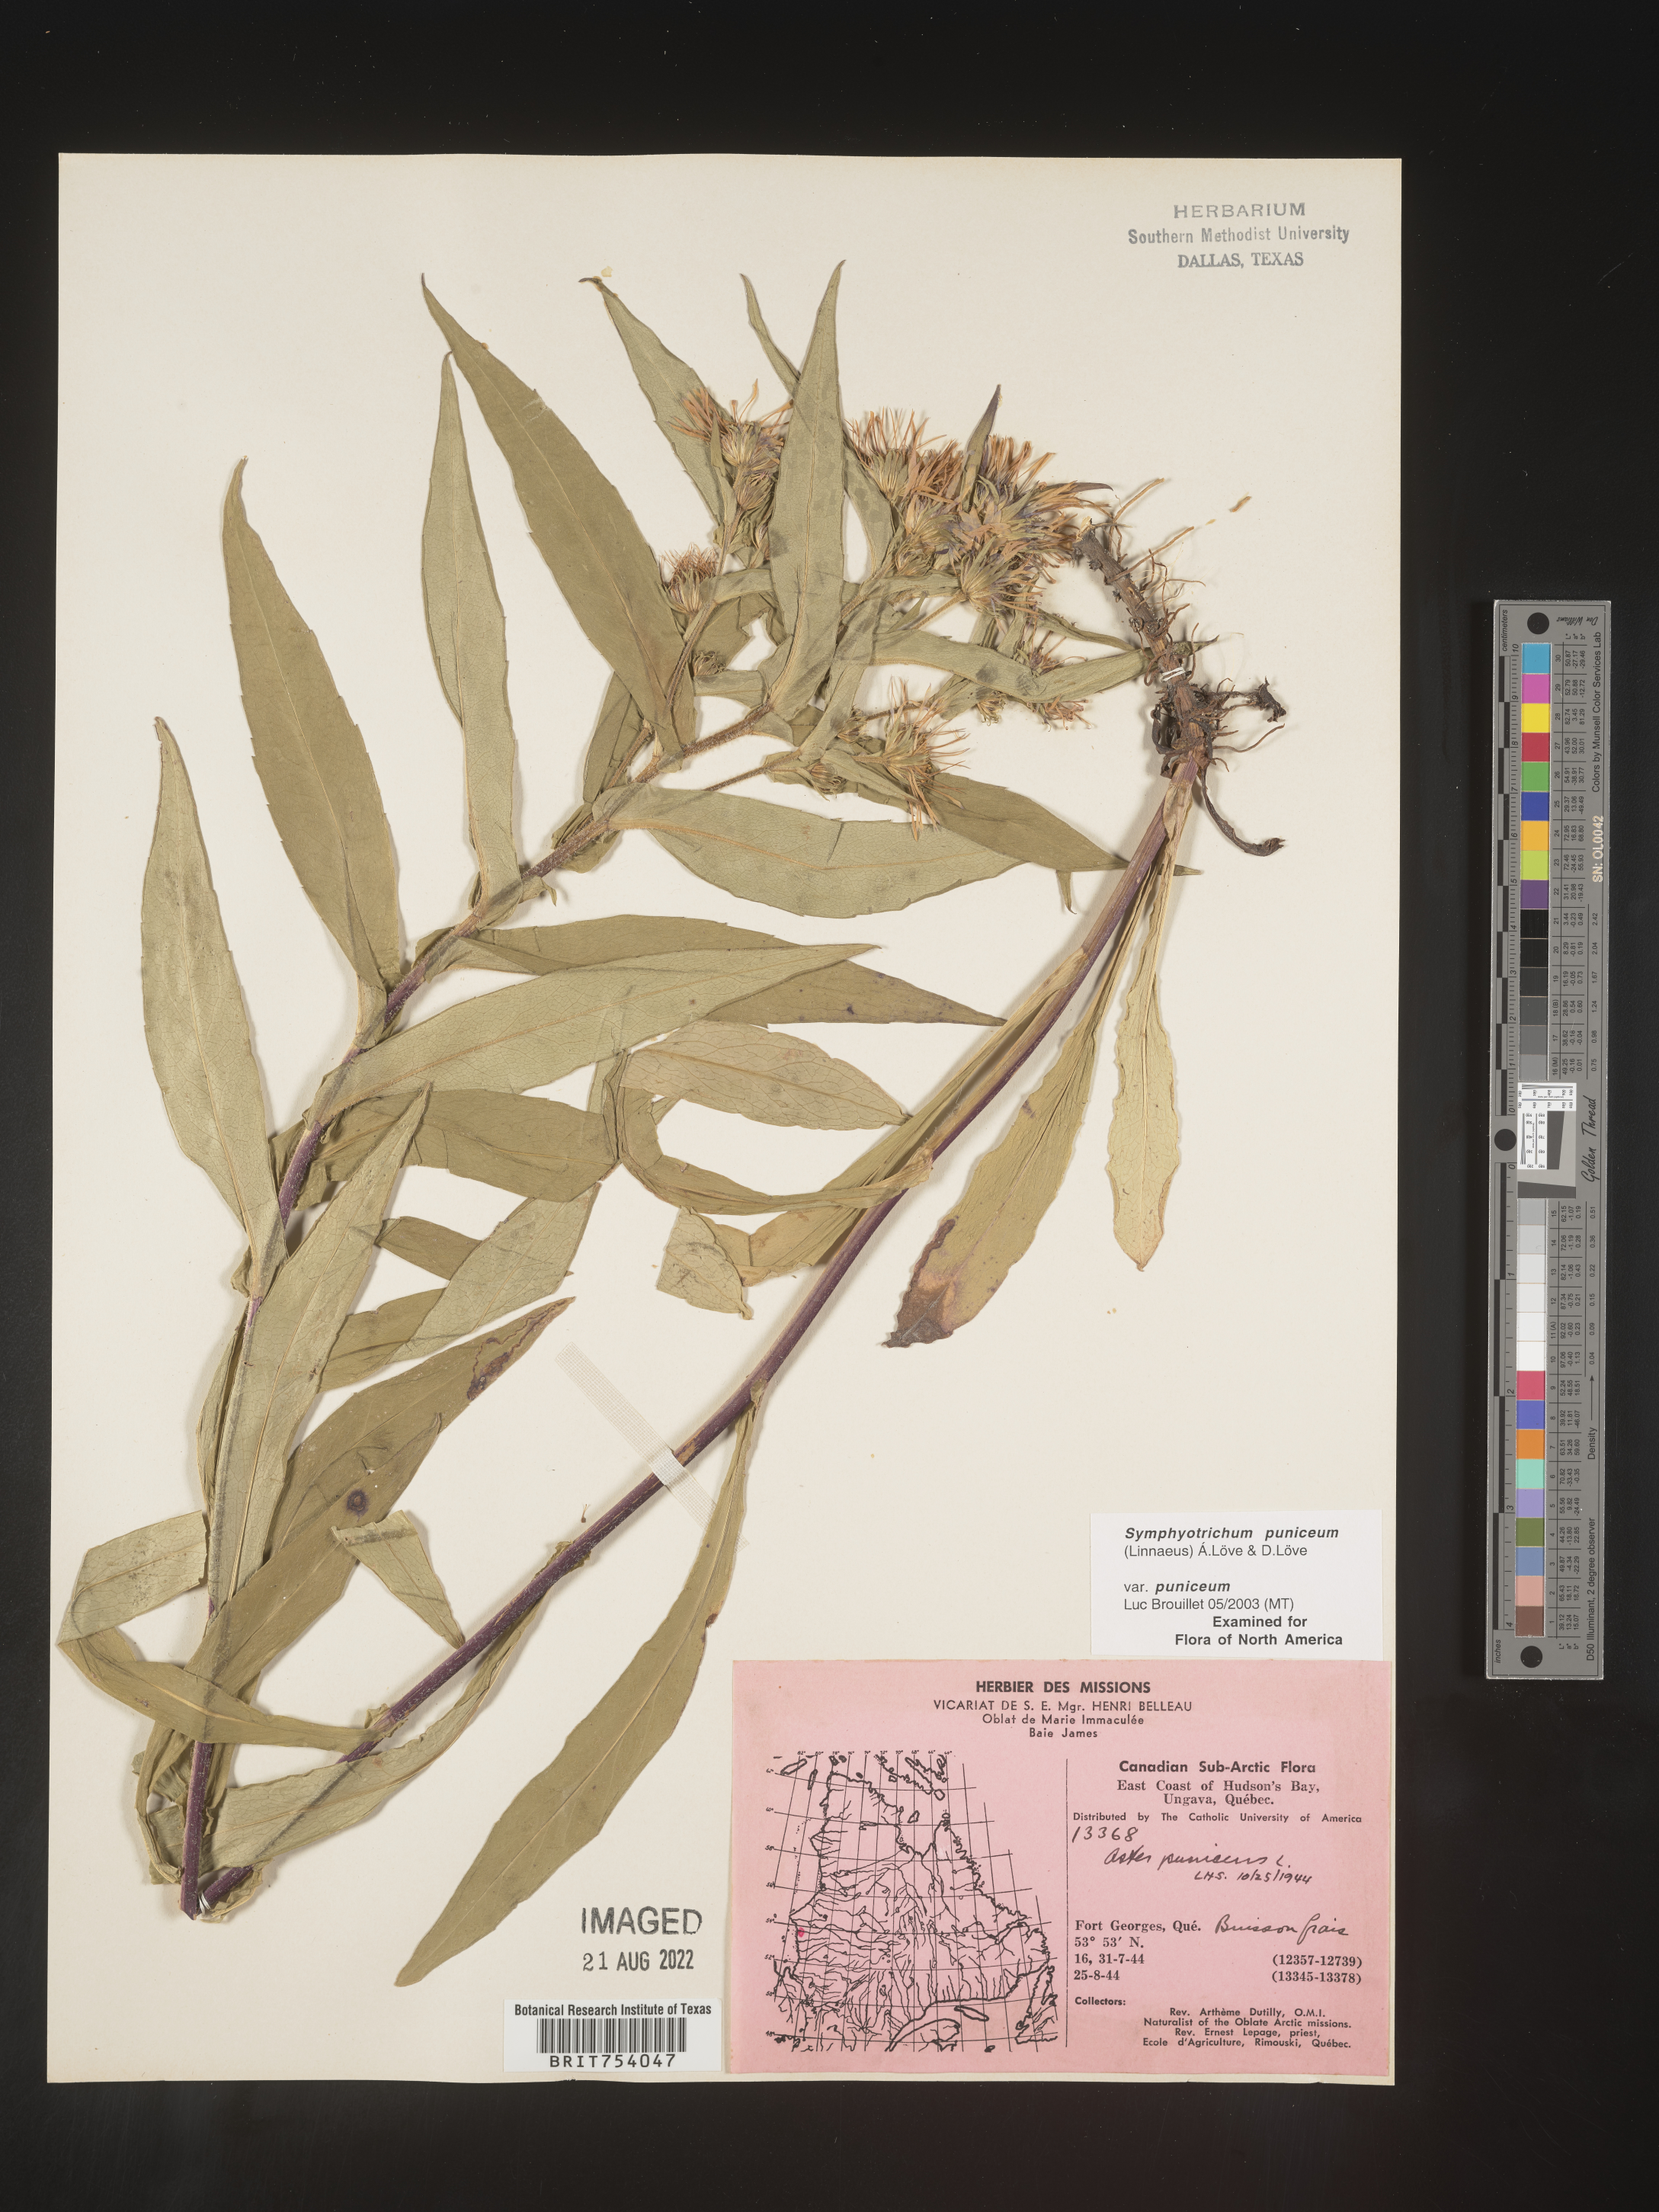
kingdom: Plantae
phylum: Tracheophyta
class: Magnoliopsida
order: Asterales
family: Asteraceae
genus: Symphyotrichum
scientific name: Symphyotrichum puniceum
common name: Bog aster
